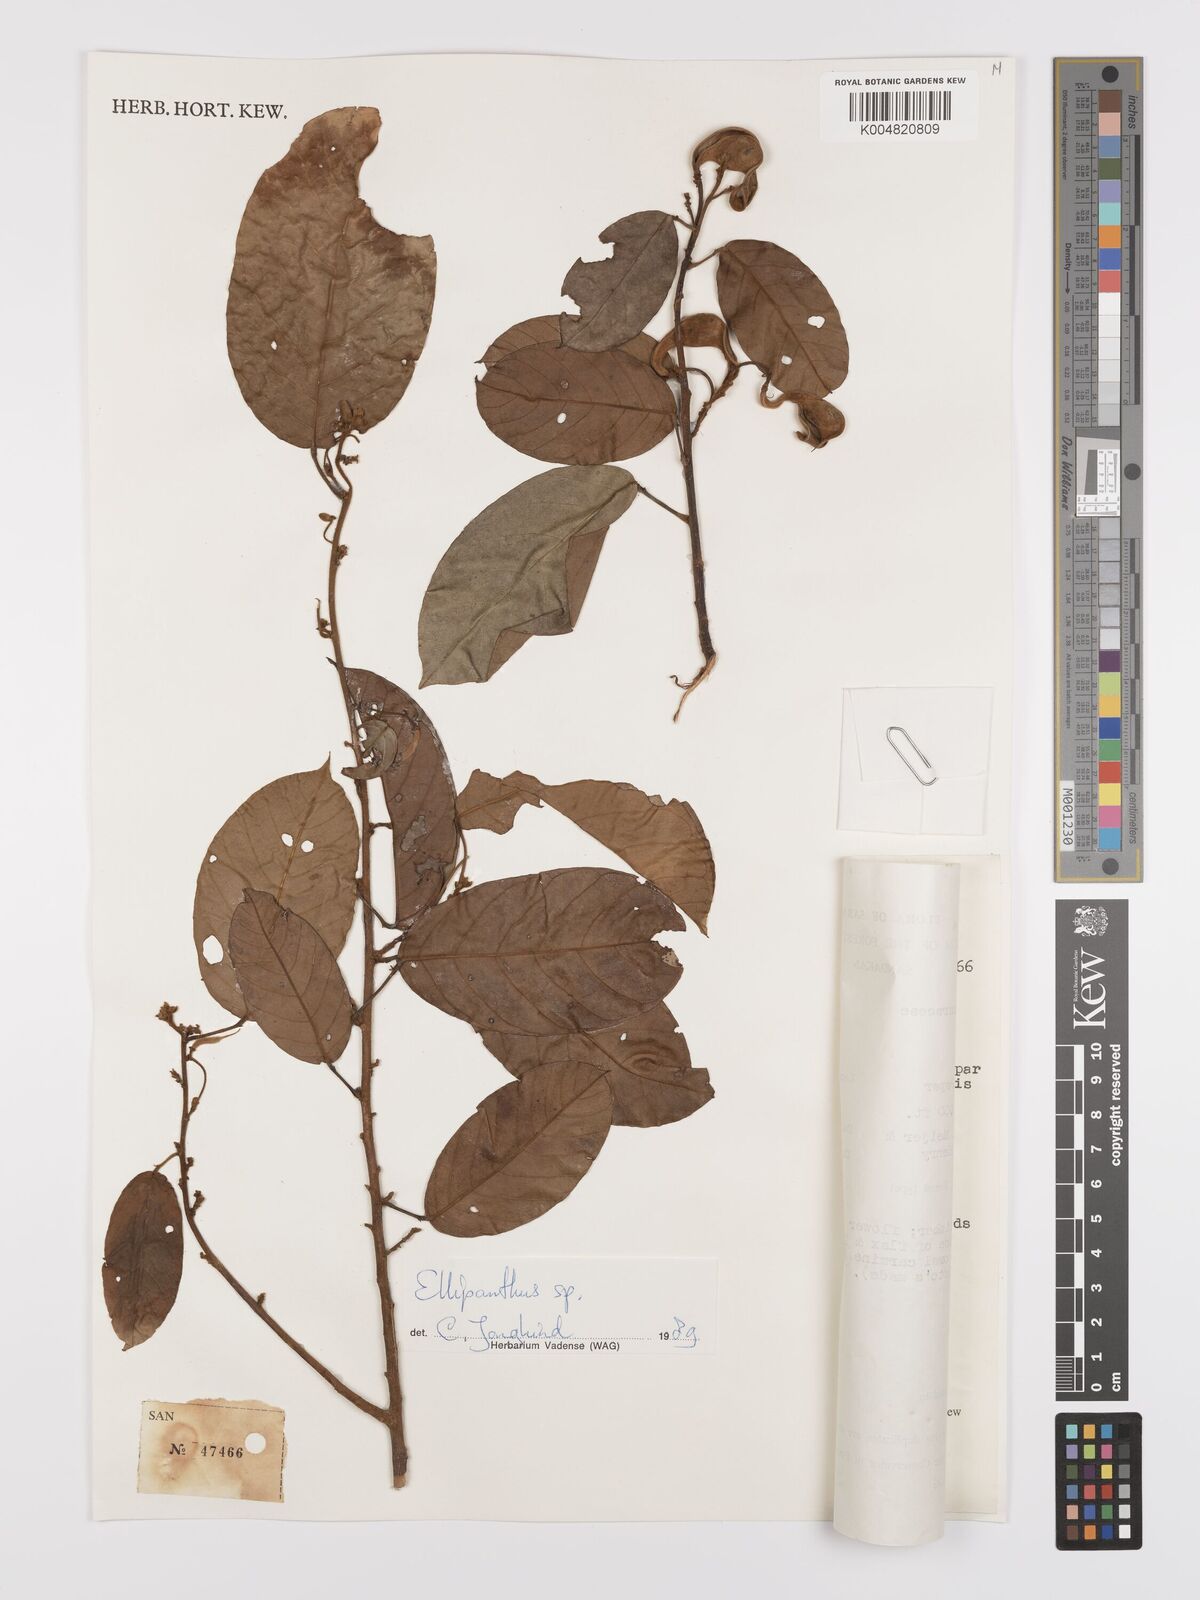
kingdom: Plantae
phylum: Tracheophyta
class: Magnoliopsida
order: Oxalidales
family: Connaraceae
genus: Ellipanthus
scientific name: Ellipanthus
